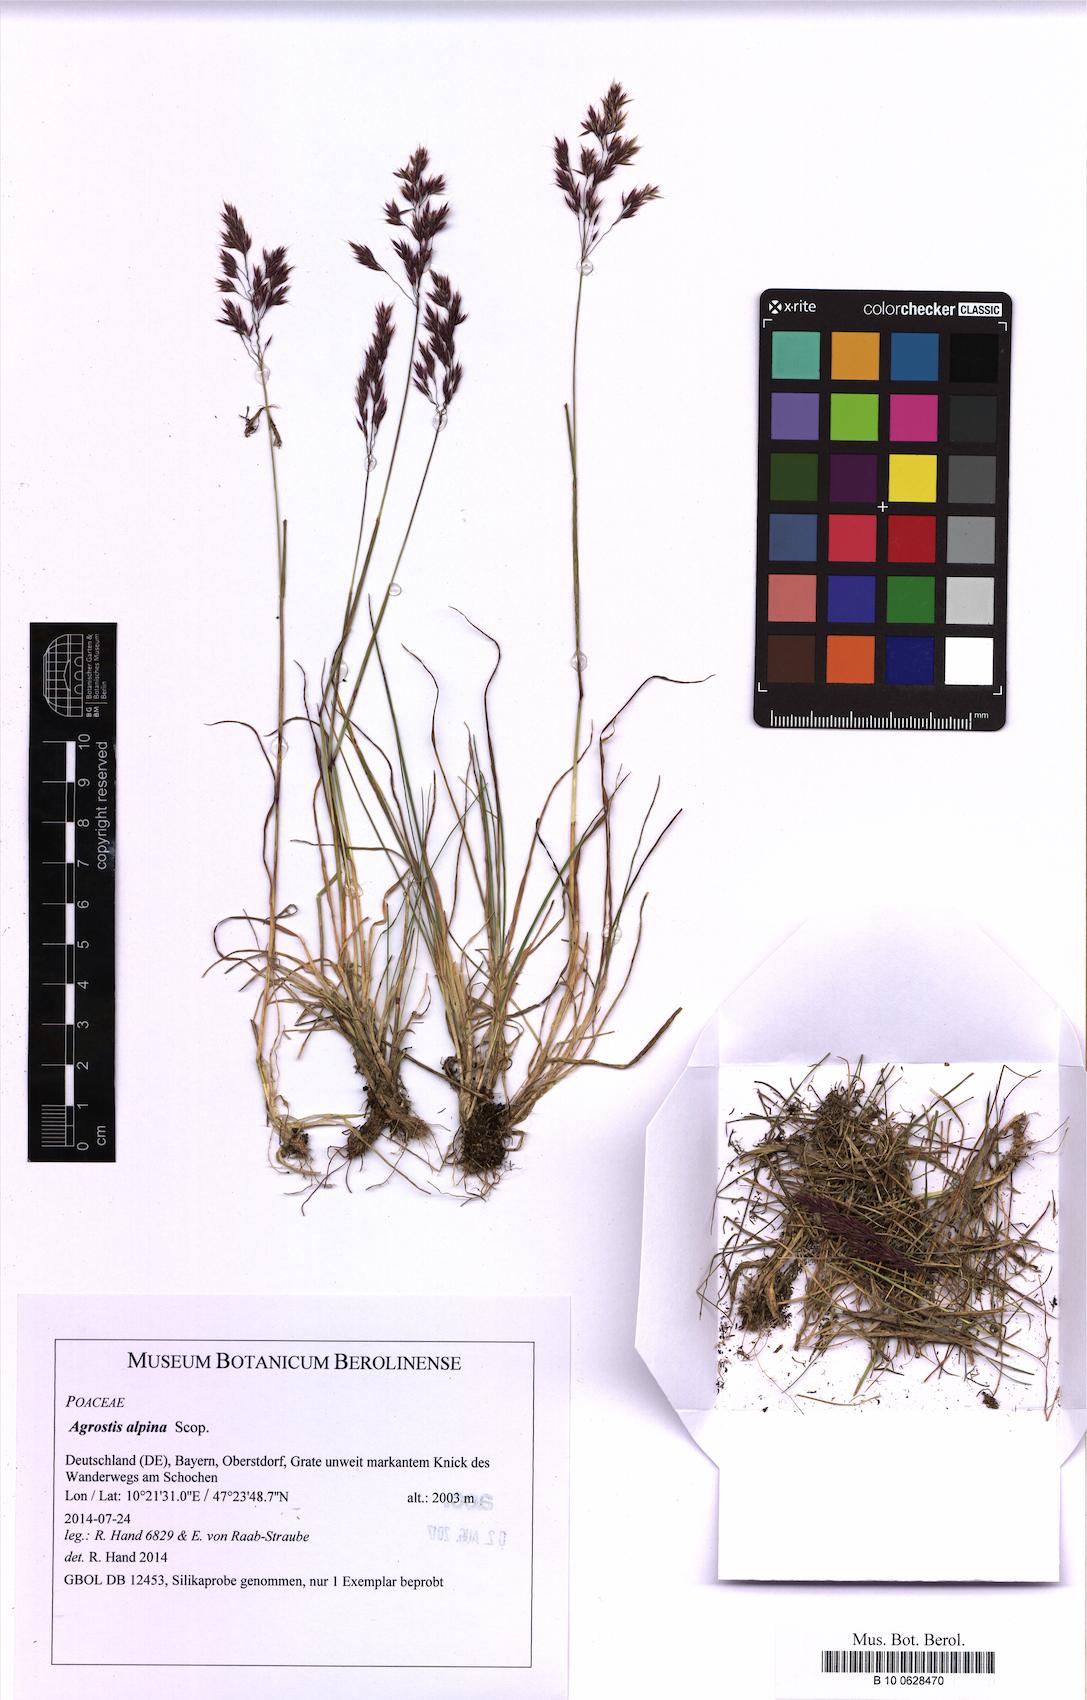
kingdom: Plantae
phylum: Tracheophyta
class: Liliopsida
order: Poales
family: Poaceae
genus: Alpagrostis
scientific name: Alpagrostis alpina
